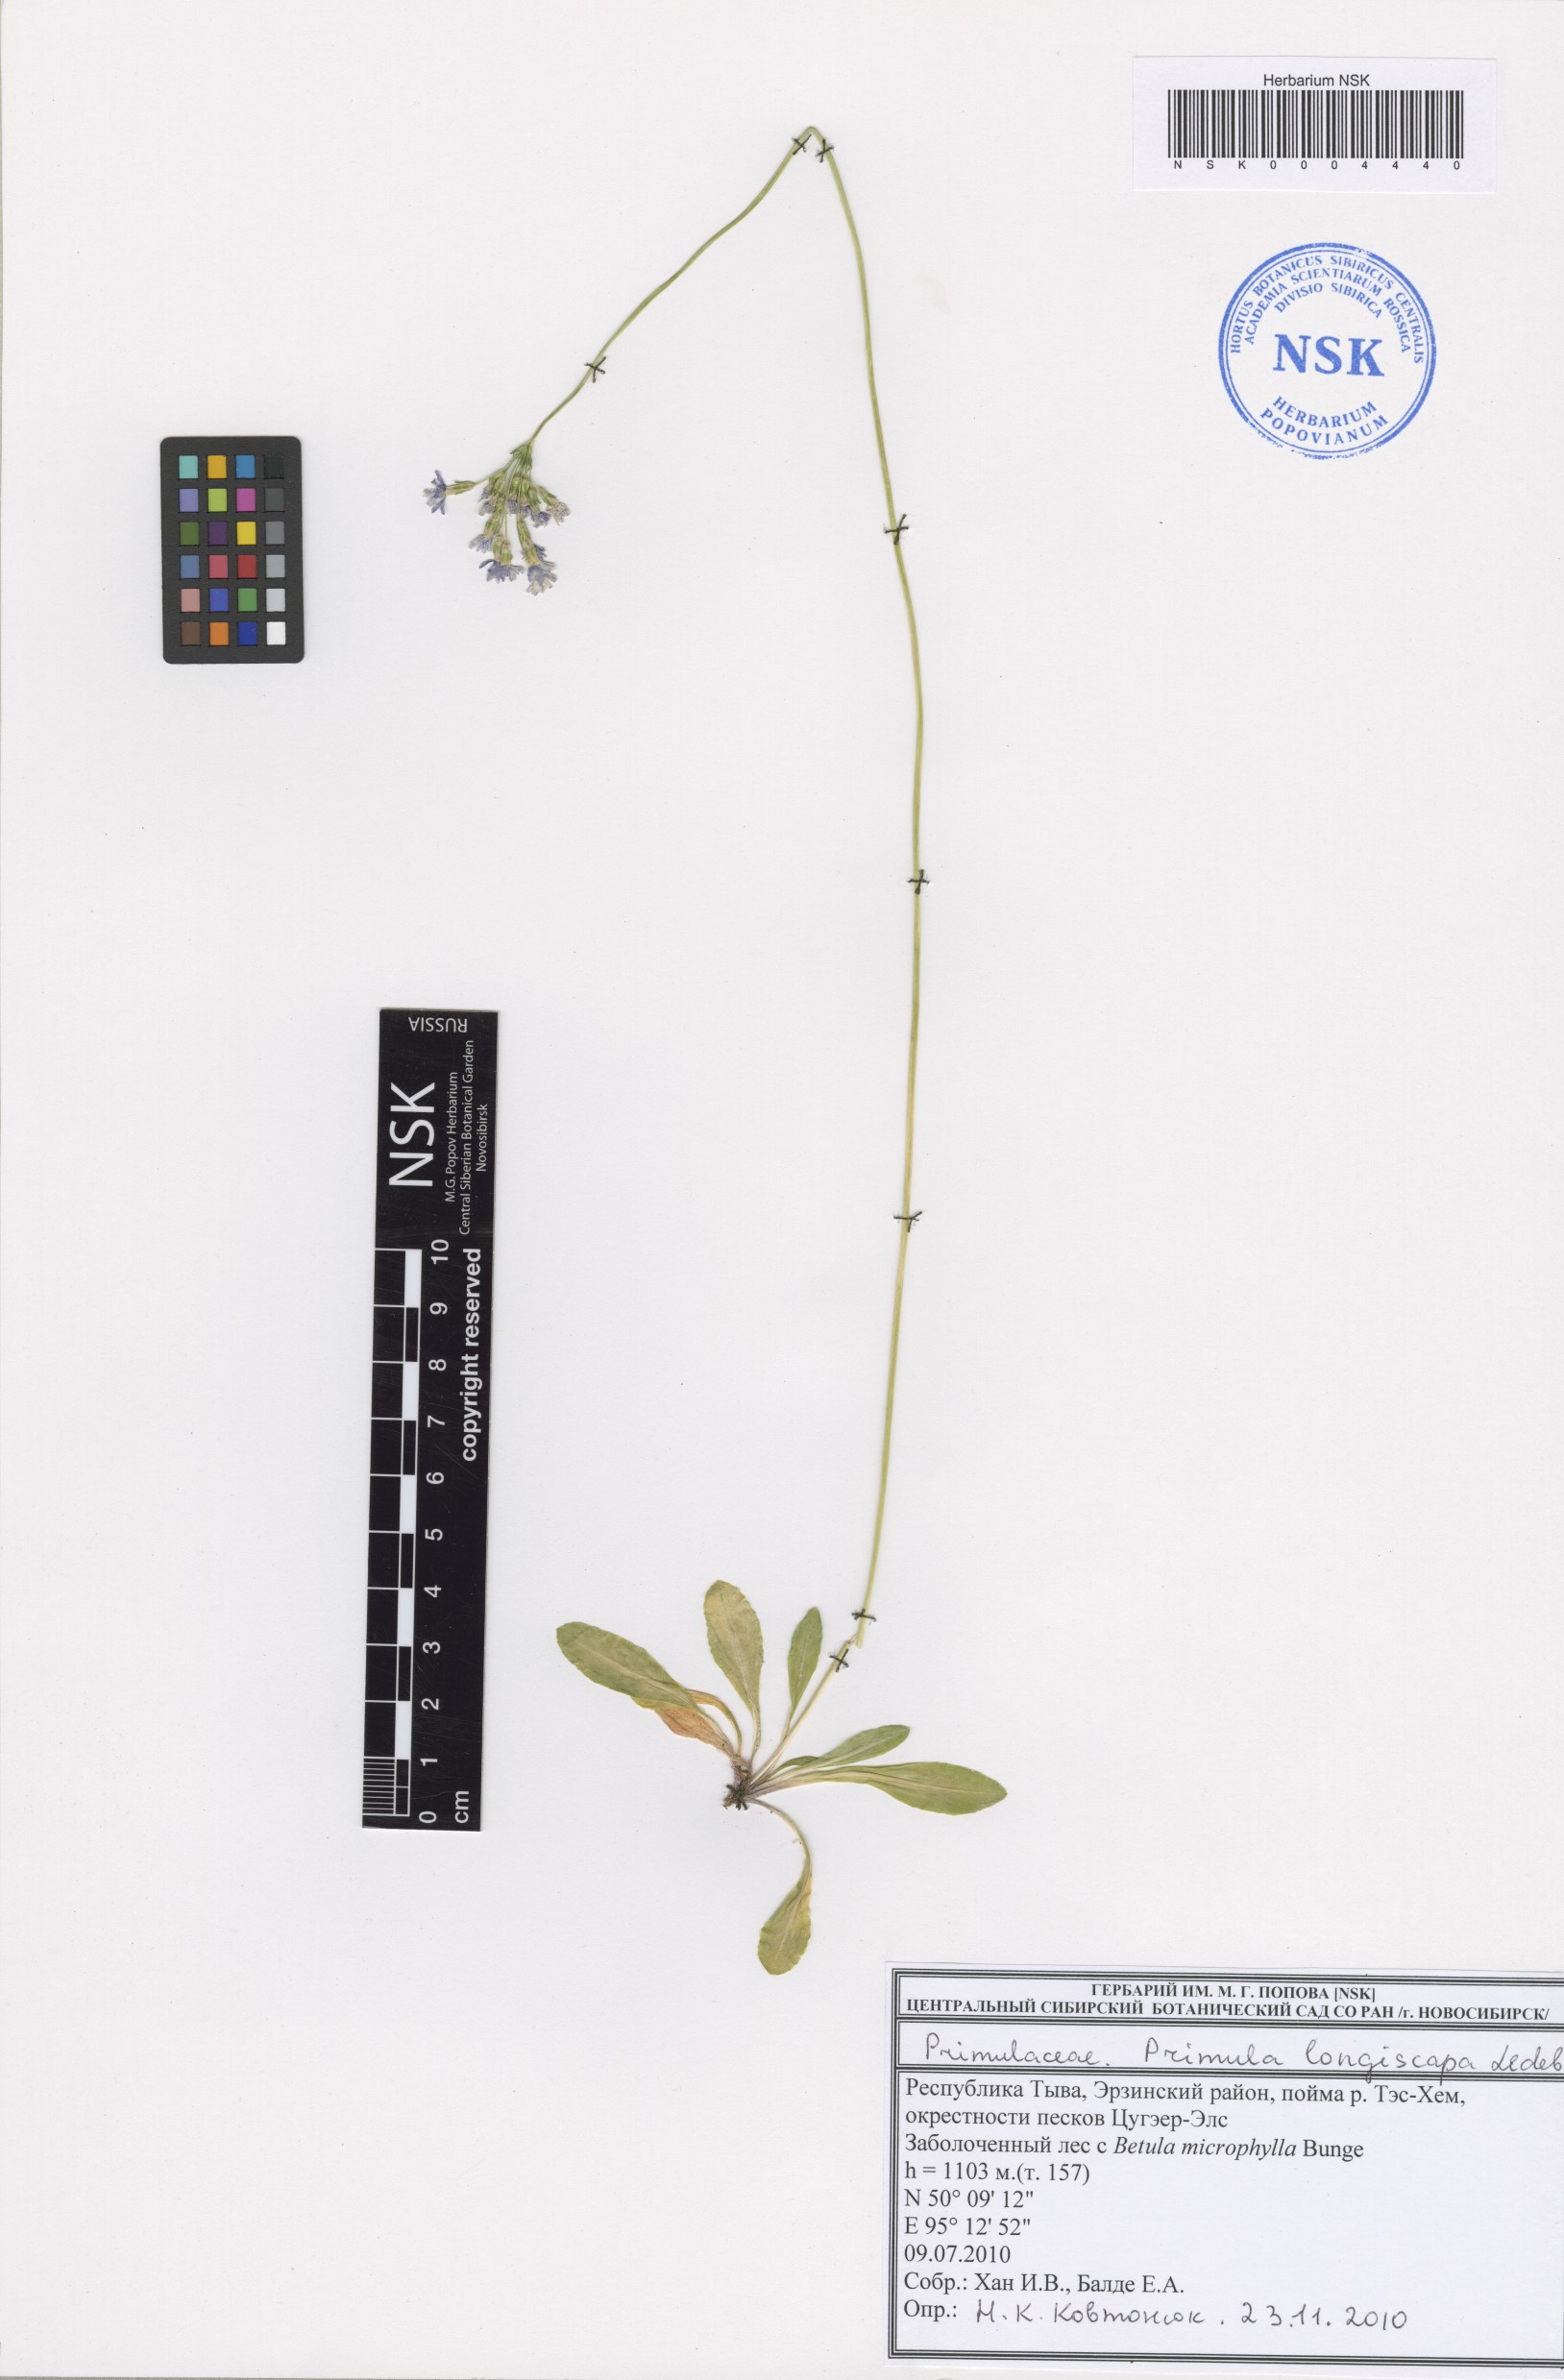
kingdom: Plantae
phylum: Tracheophyta
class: Magnoliopsida
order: Ericales
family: Primulaceae
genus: Primula
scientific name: Primula longiscapa
